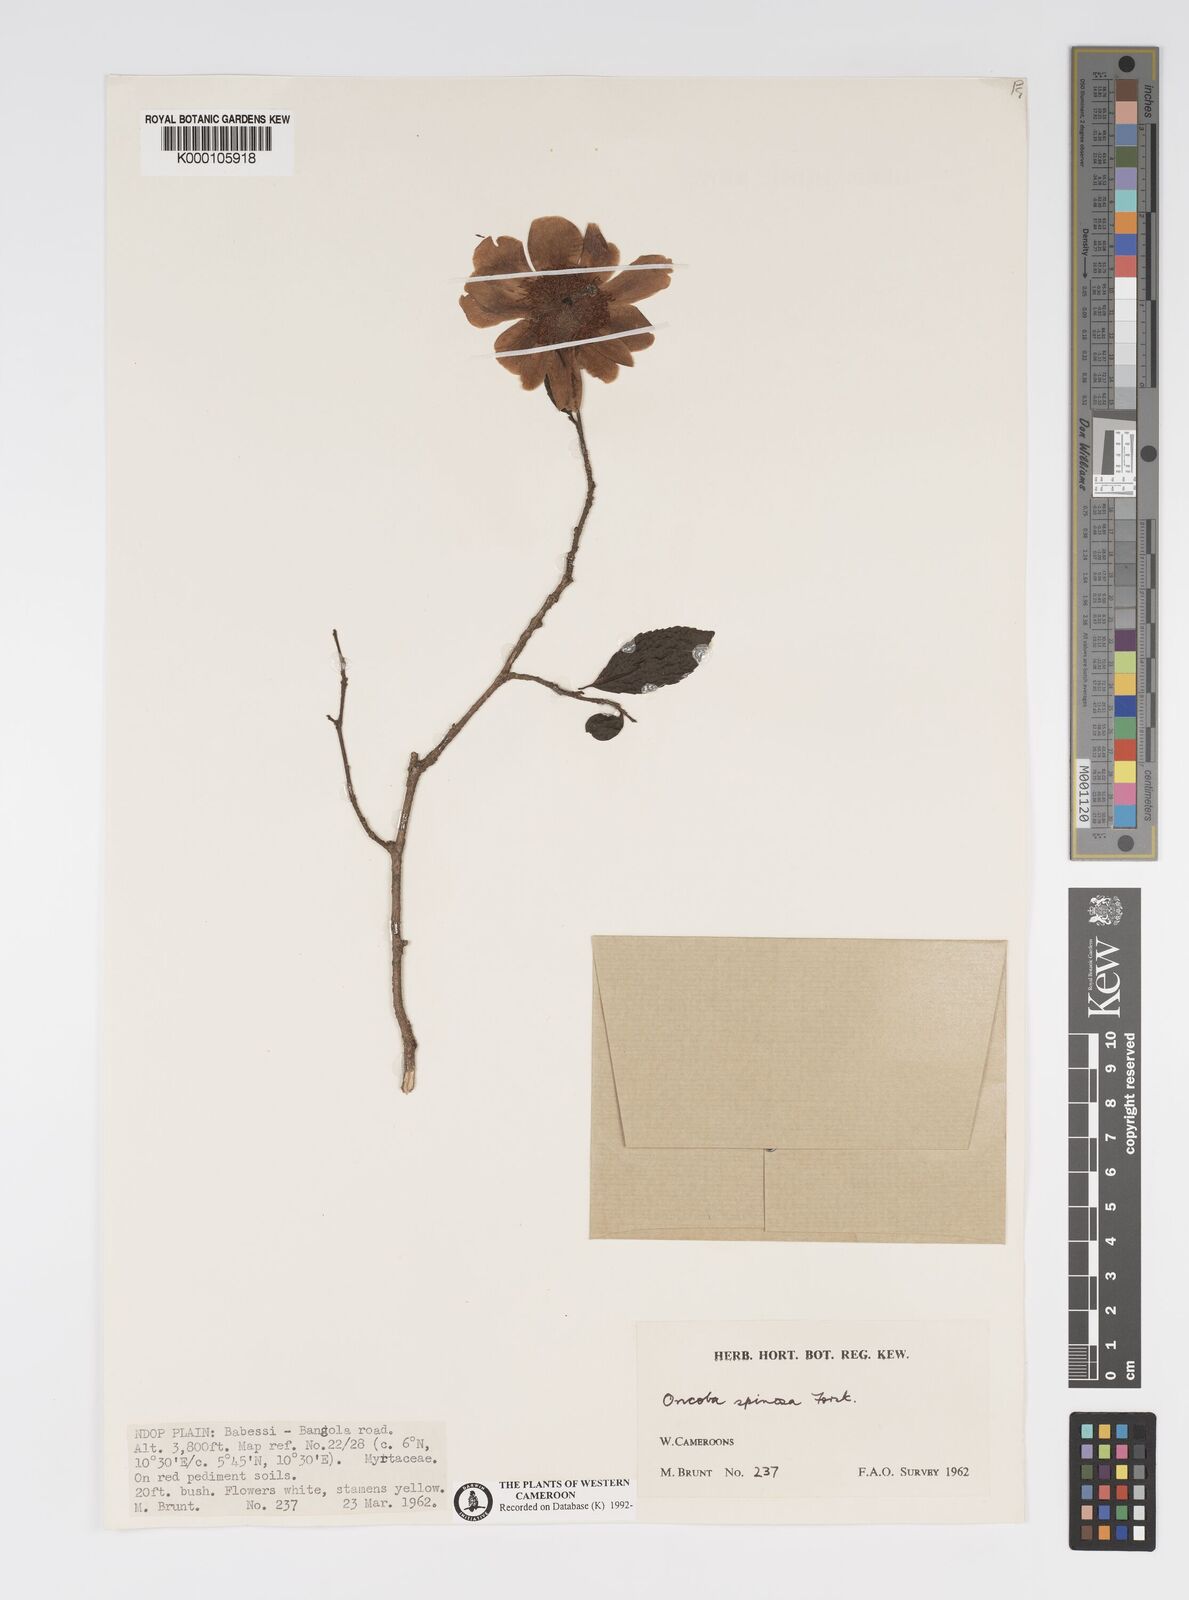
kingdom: Plantae
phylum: Tracheophyta
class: Magnoliopsida
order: Malpighiales
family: Salicaceae
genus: Oncoba
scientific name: Oncoba spinosa
